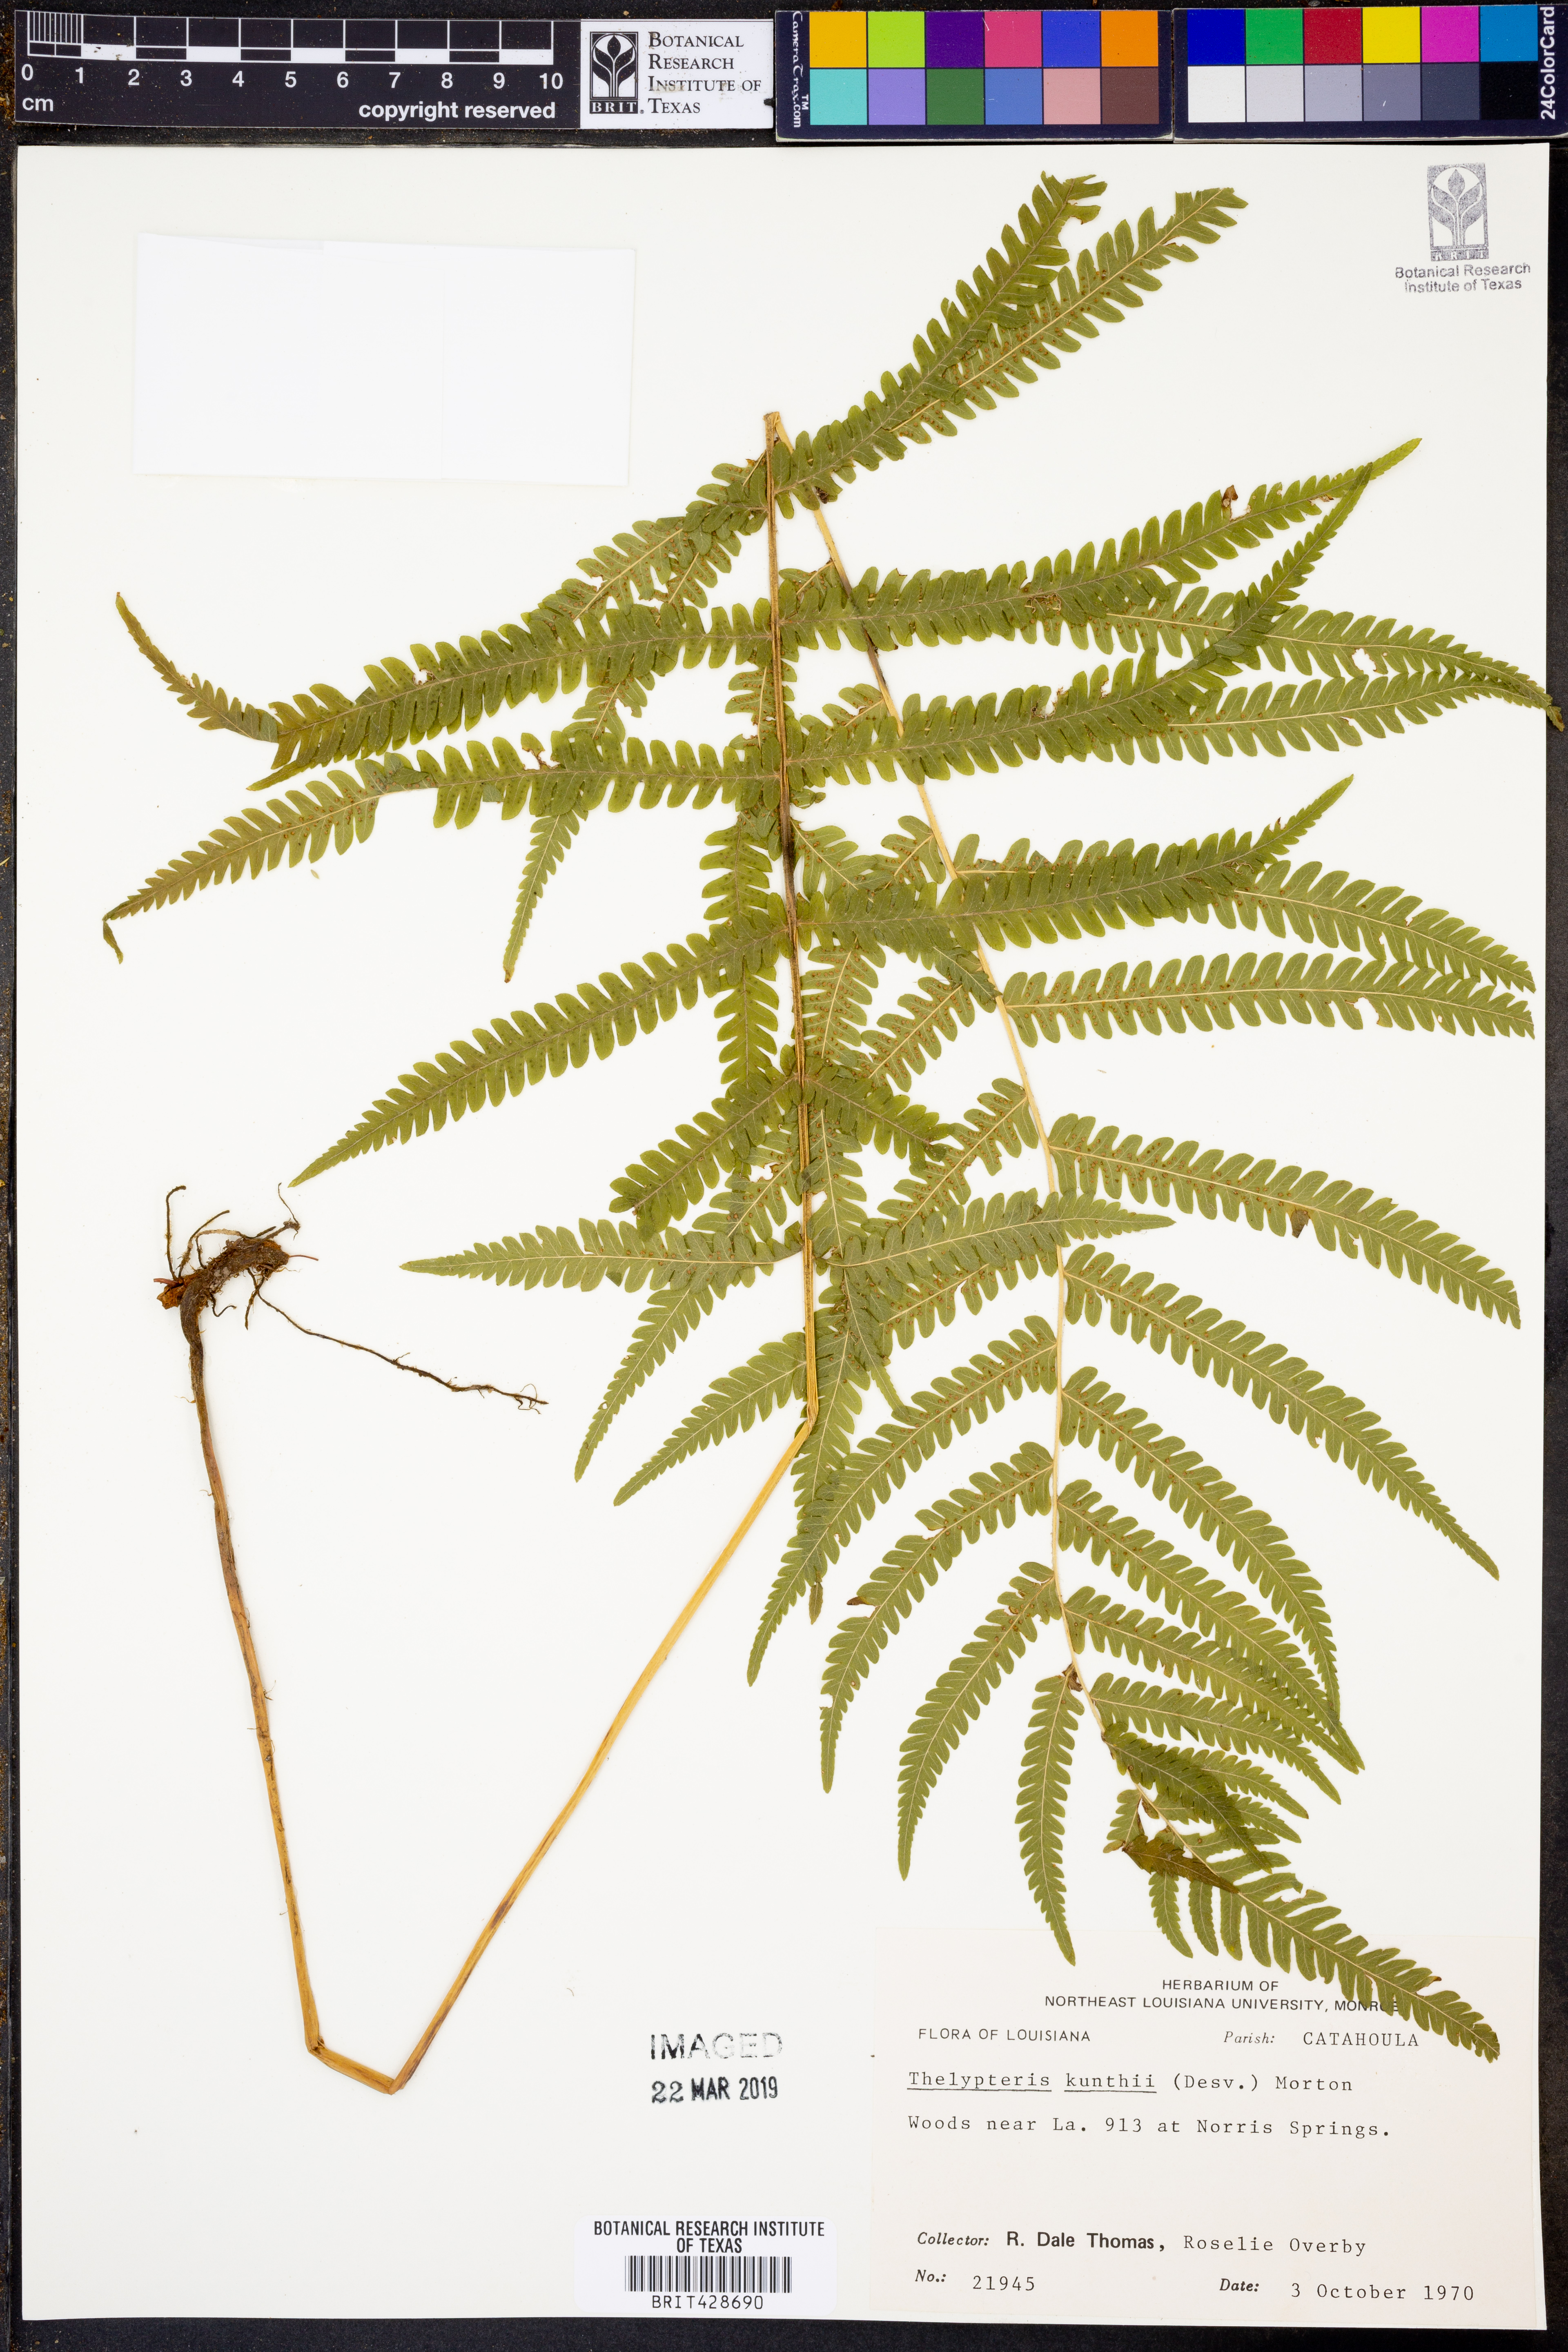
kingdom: Plantae
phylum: Tracheophyta
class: Polypodiopsida
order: Polypodiales
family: Thelypteridaceae
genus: Pelazoneuron
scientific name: Pelazoneuron kunthii
